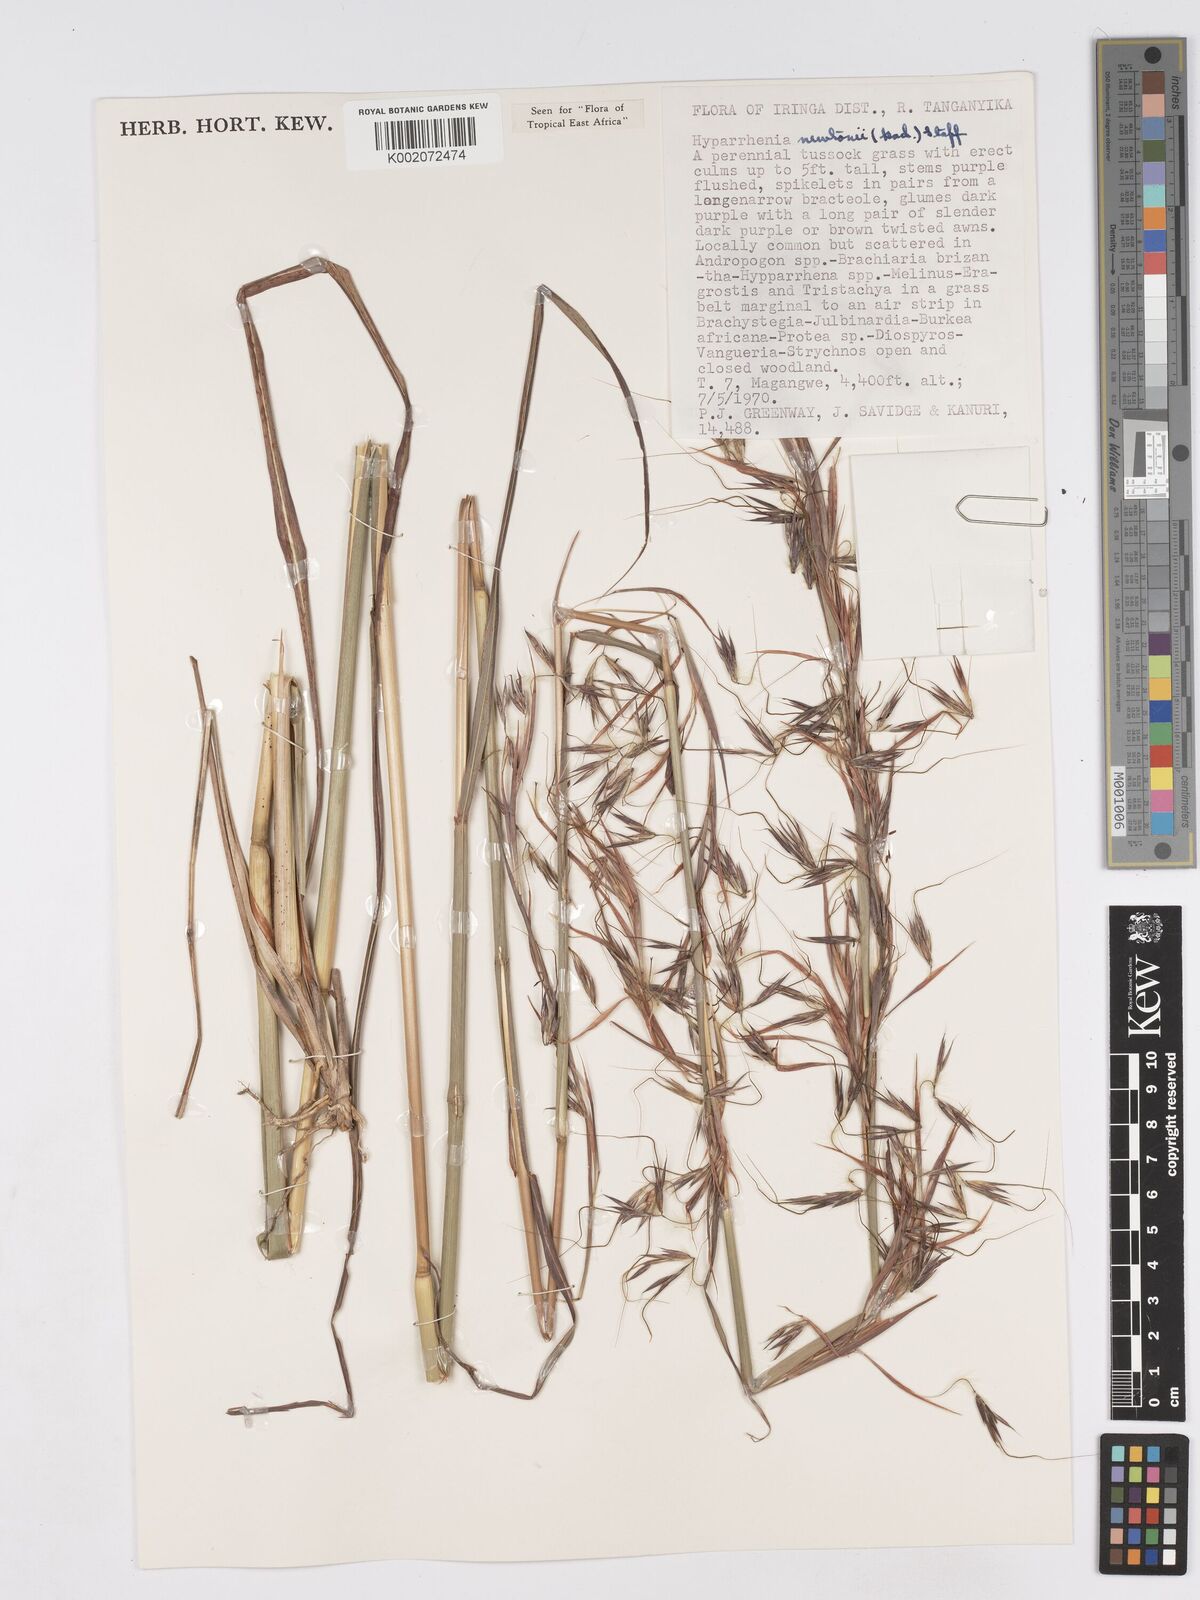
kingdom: Plantae
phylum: Tracheophyta
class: Liliopsida
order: Poales
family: Poaceae
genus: Hyparrhenia
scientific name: Hyparrhenia newtonii
